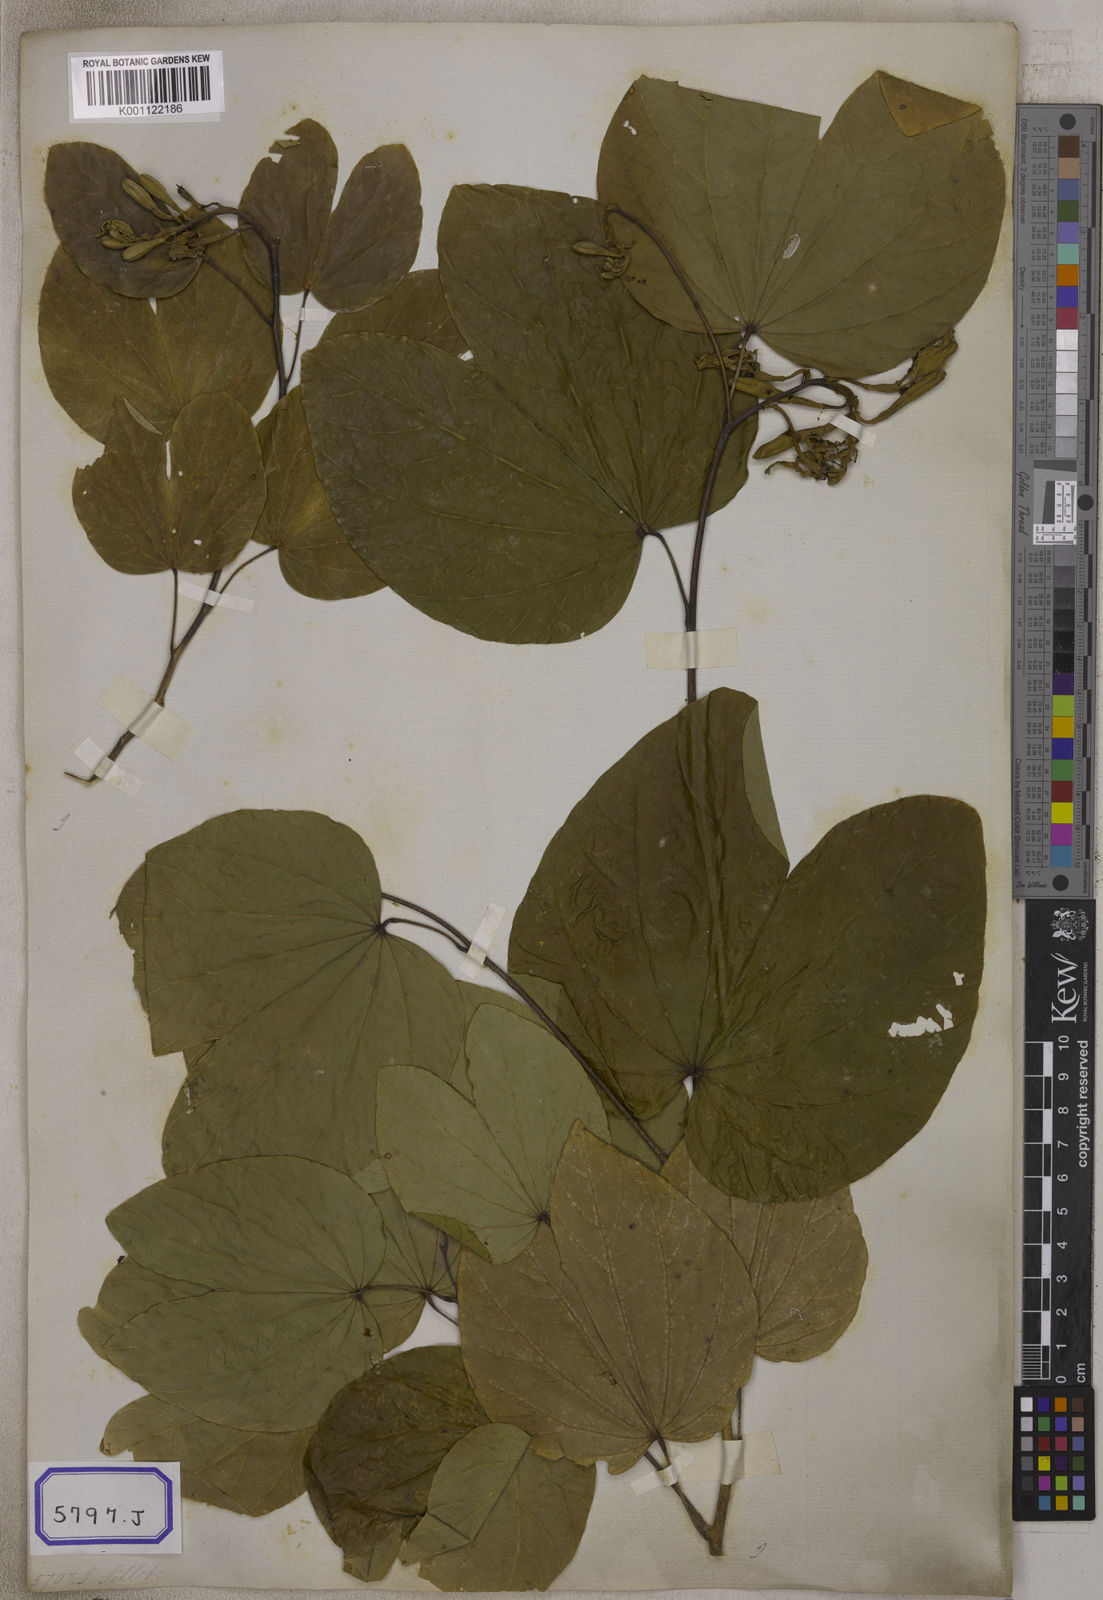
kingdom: Plantae
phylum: Tracheophyta
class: Magnoliopsida
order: Fabales
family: Fabaceae
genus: Bauhinia
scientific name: Bauhinia
